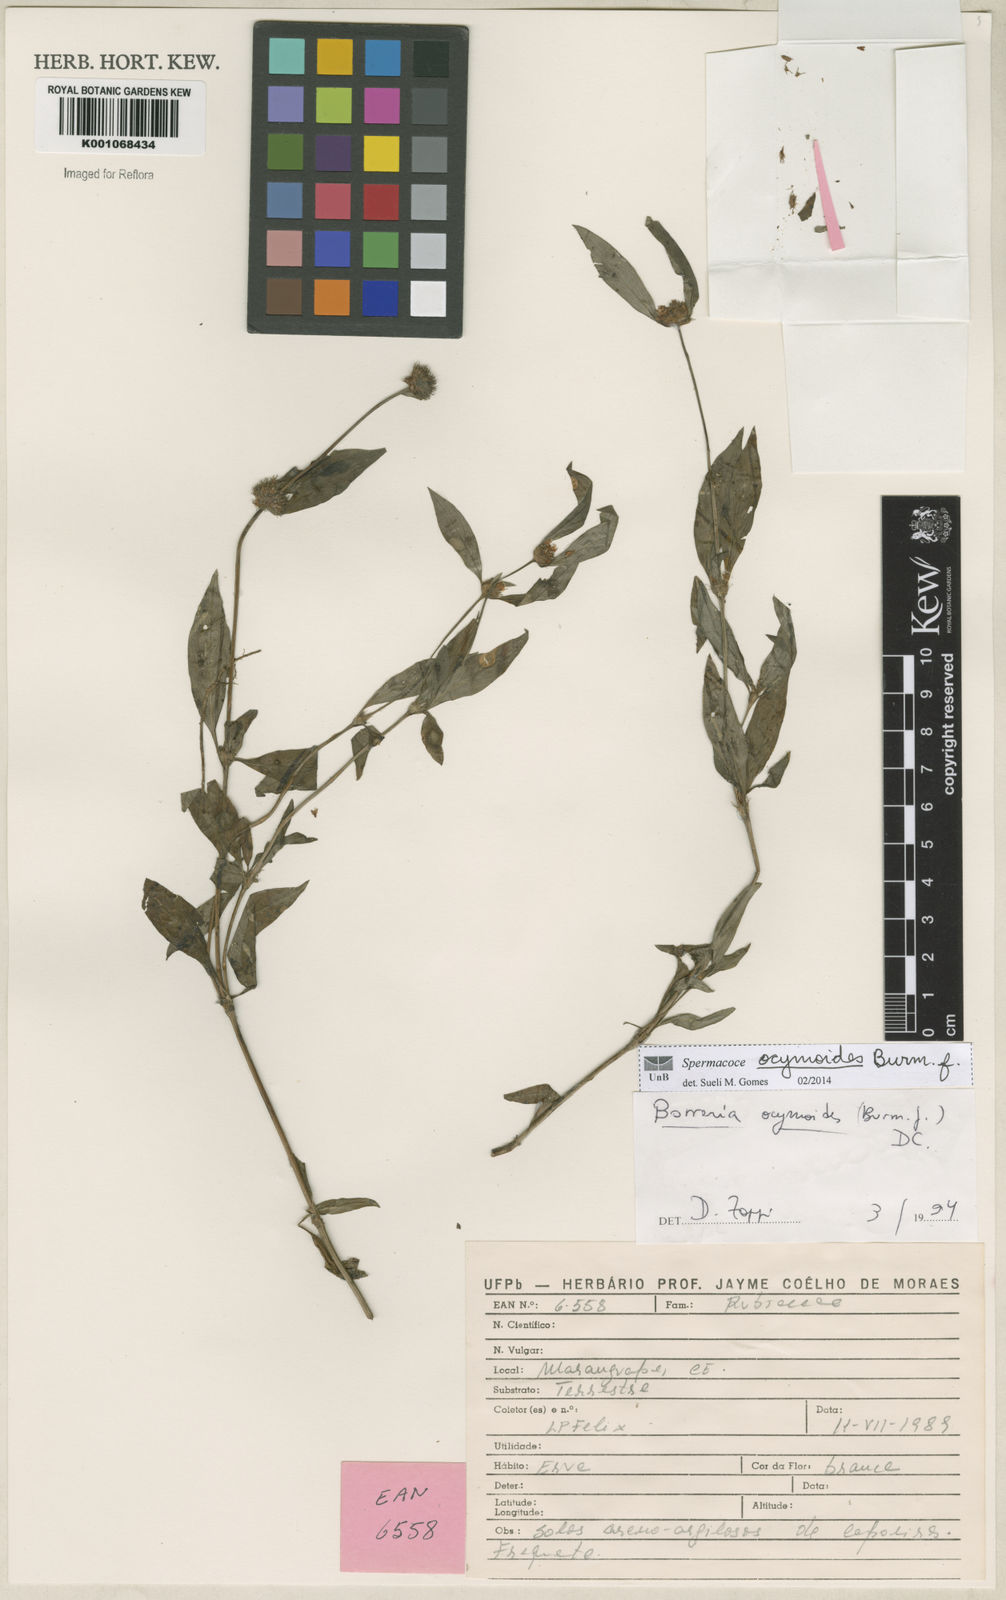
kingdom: Plantae
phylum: Tracheophyta
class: Magnoliopsida
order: Gentianales
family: Rubiaceae
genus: Spermacoce
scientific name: Spermacoce ocymoides
